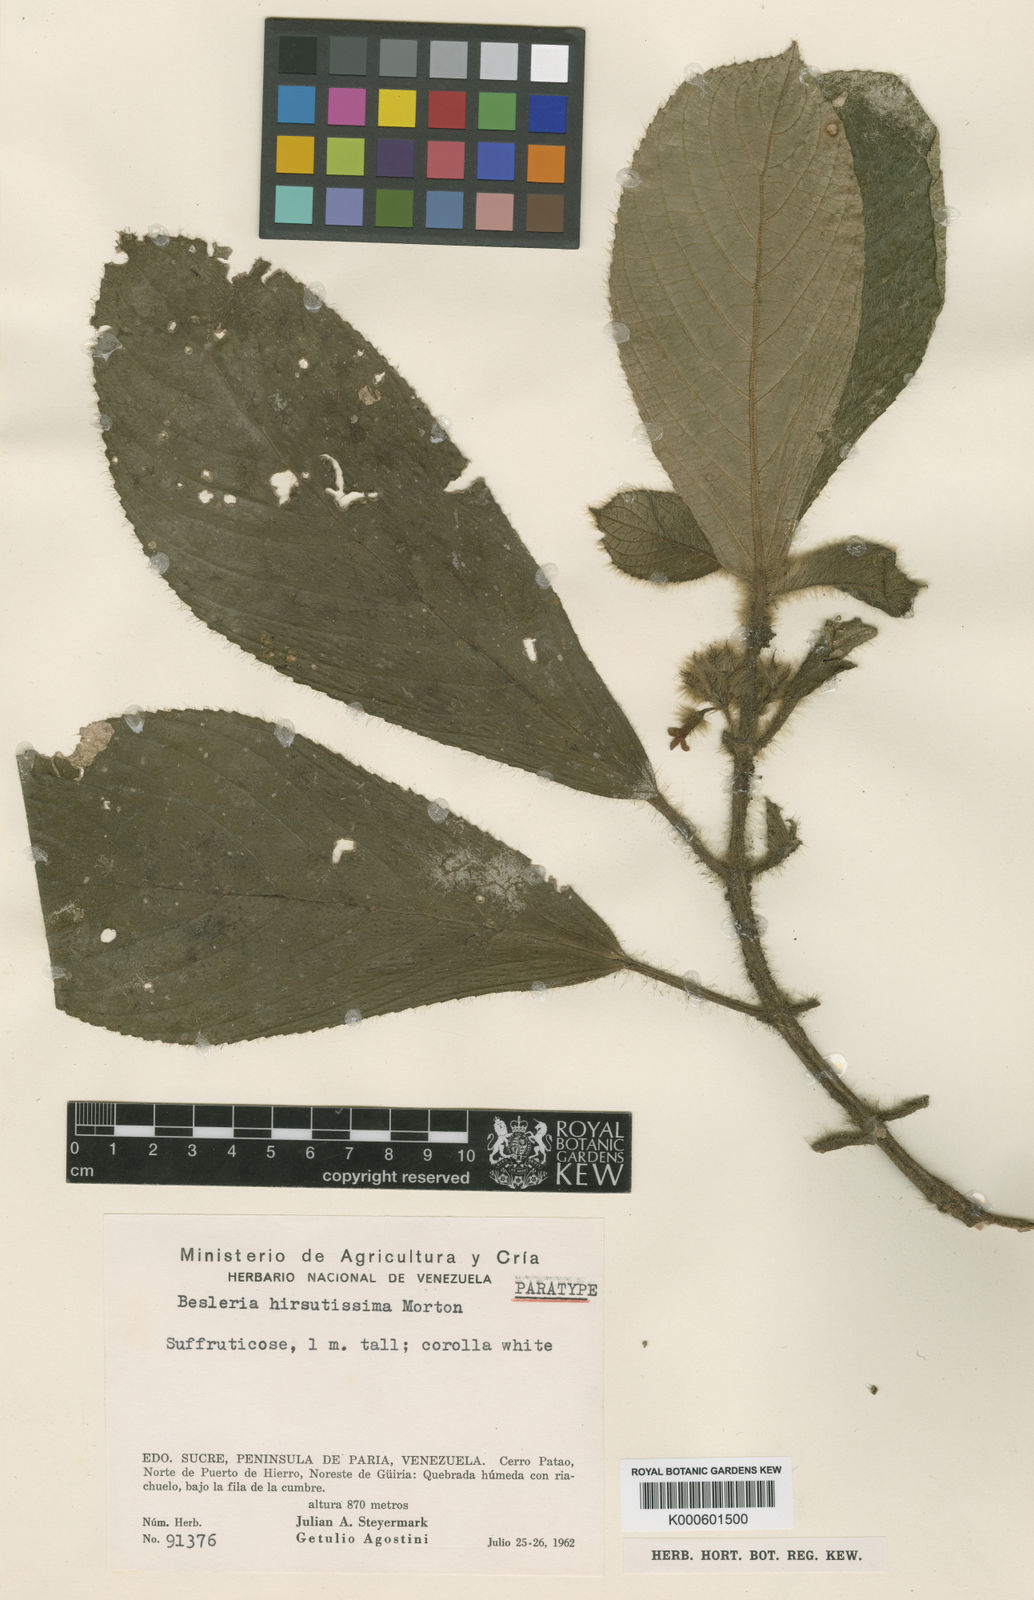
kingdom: Plantae
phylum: Tracheophyta
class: Magnoliopsida
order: Lamiales
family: Gesneriaceae
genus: Besleria
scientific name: Besleria hirsutissima
